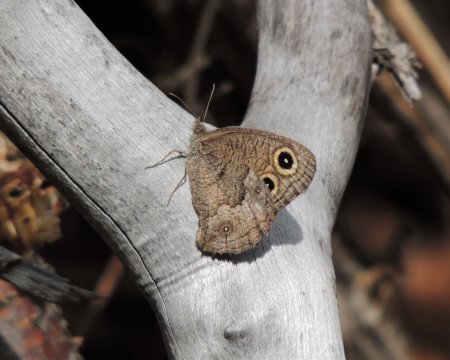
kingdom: Animalia
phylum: Arthropoda
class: Insecta
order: Lepidoptera
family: Nymphalidae
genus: Cercyonis
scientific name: Cercyonis pegala
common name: Common Wood-Nymph
